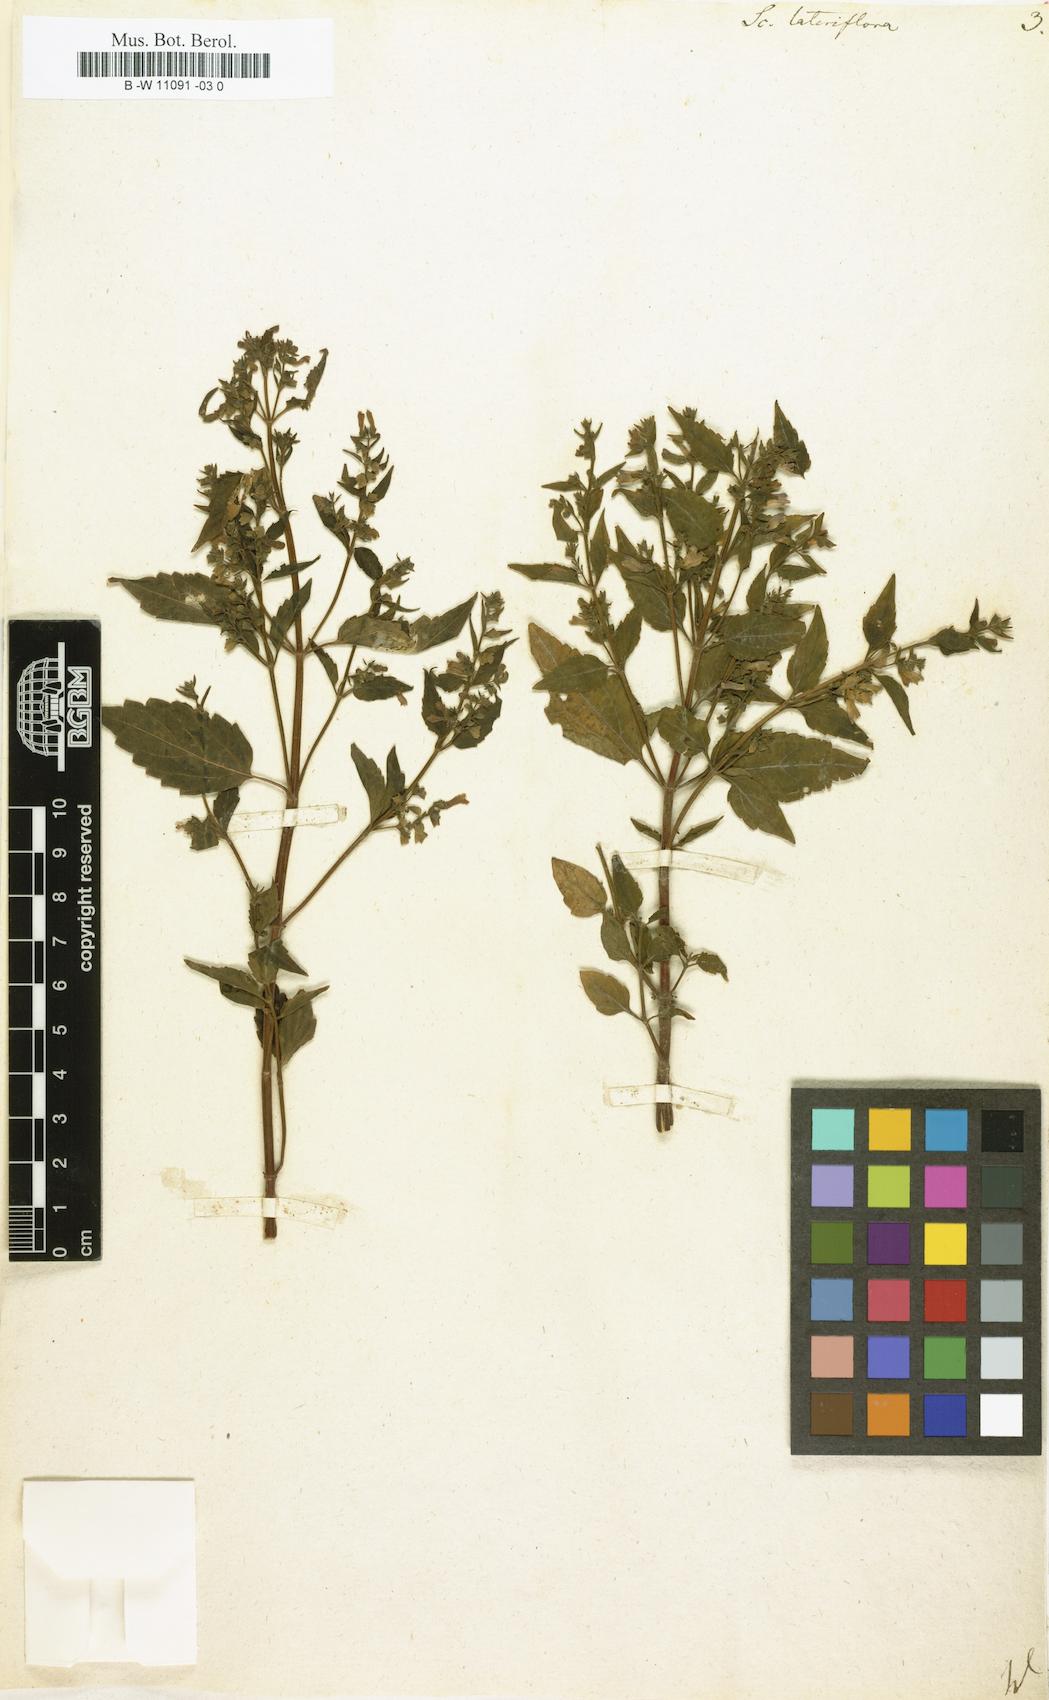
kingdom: Plantae
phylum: Tracheophyta
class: Magnoliopsida
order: Lamiales
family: Lamiaceae
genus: Scutellaria
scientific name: Scutellaria lateriflora
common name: Blue skullcap
